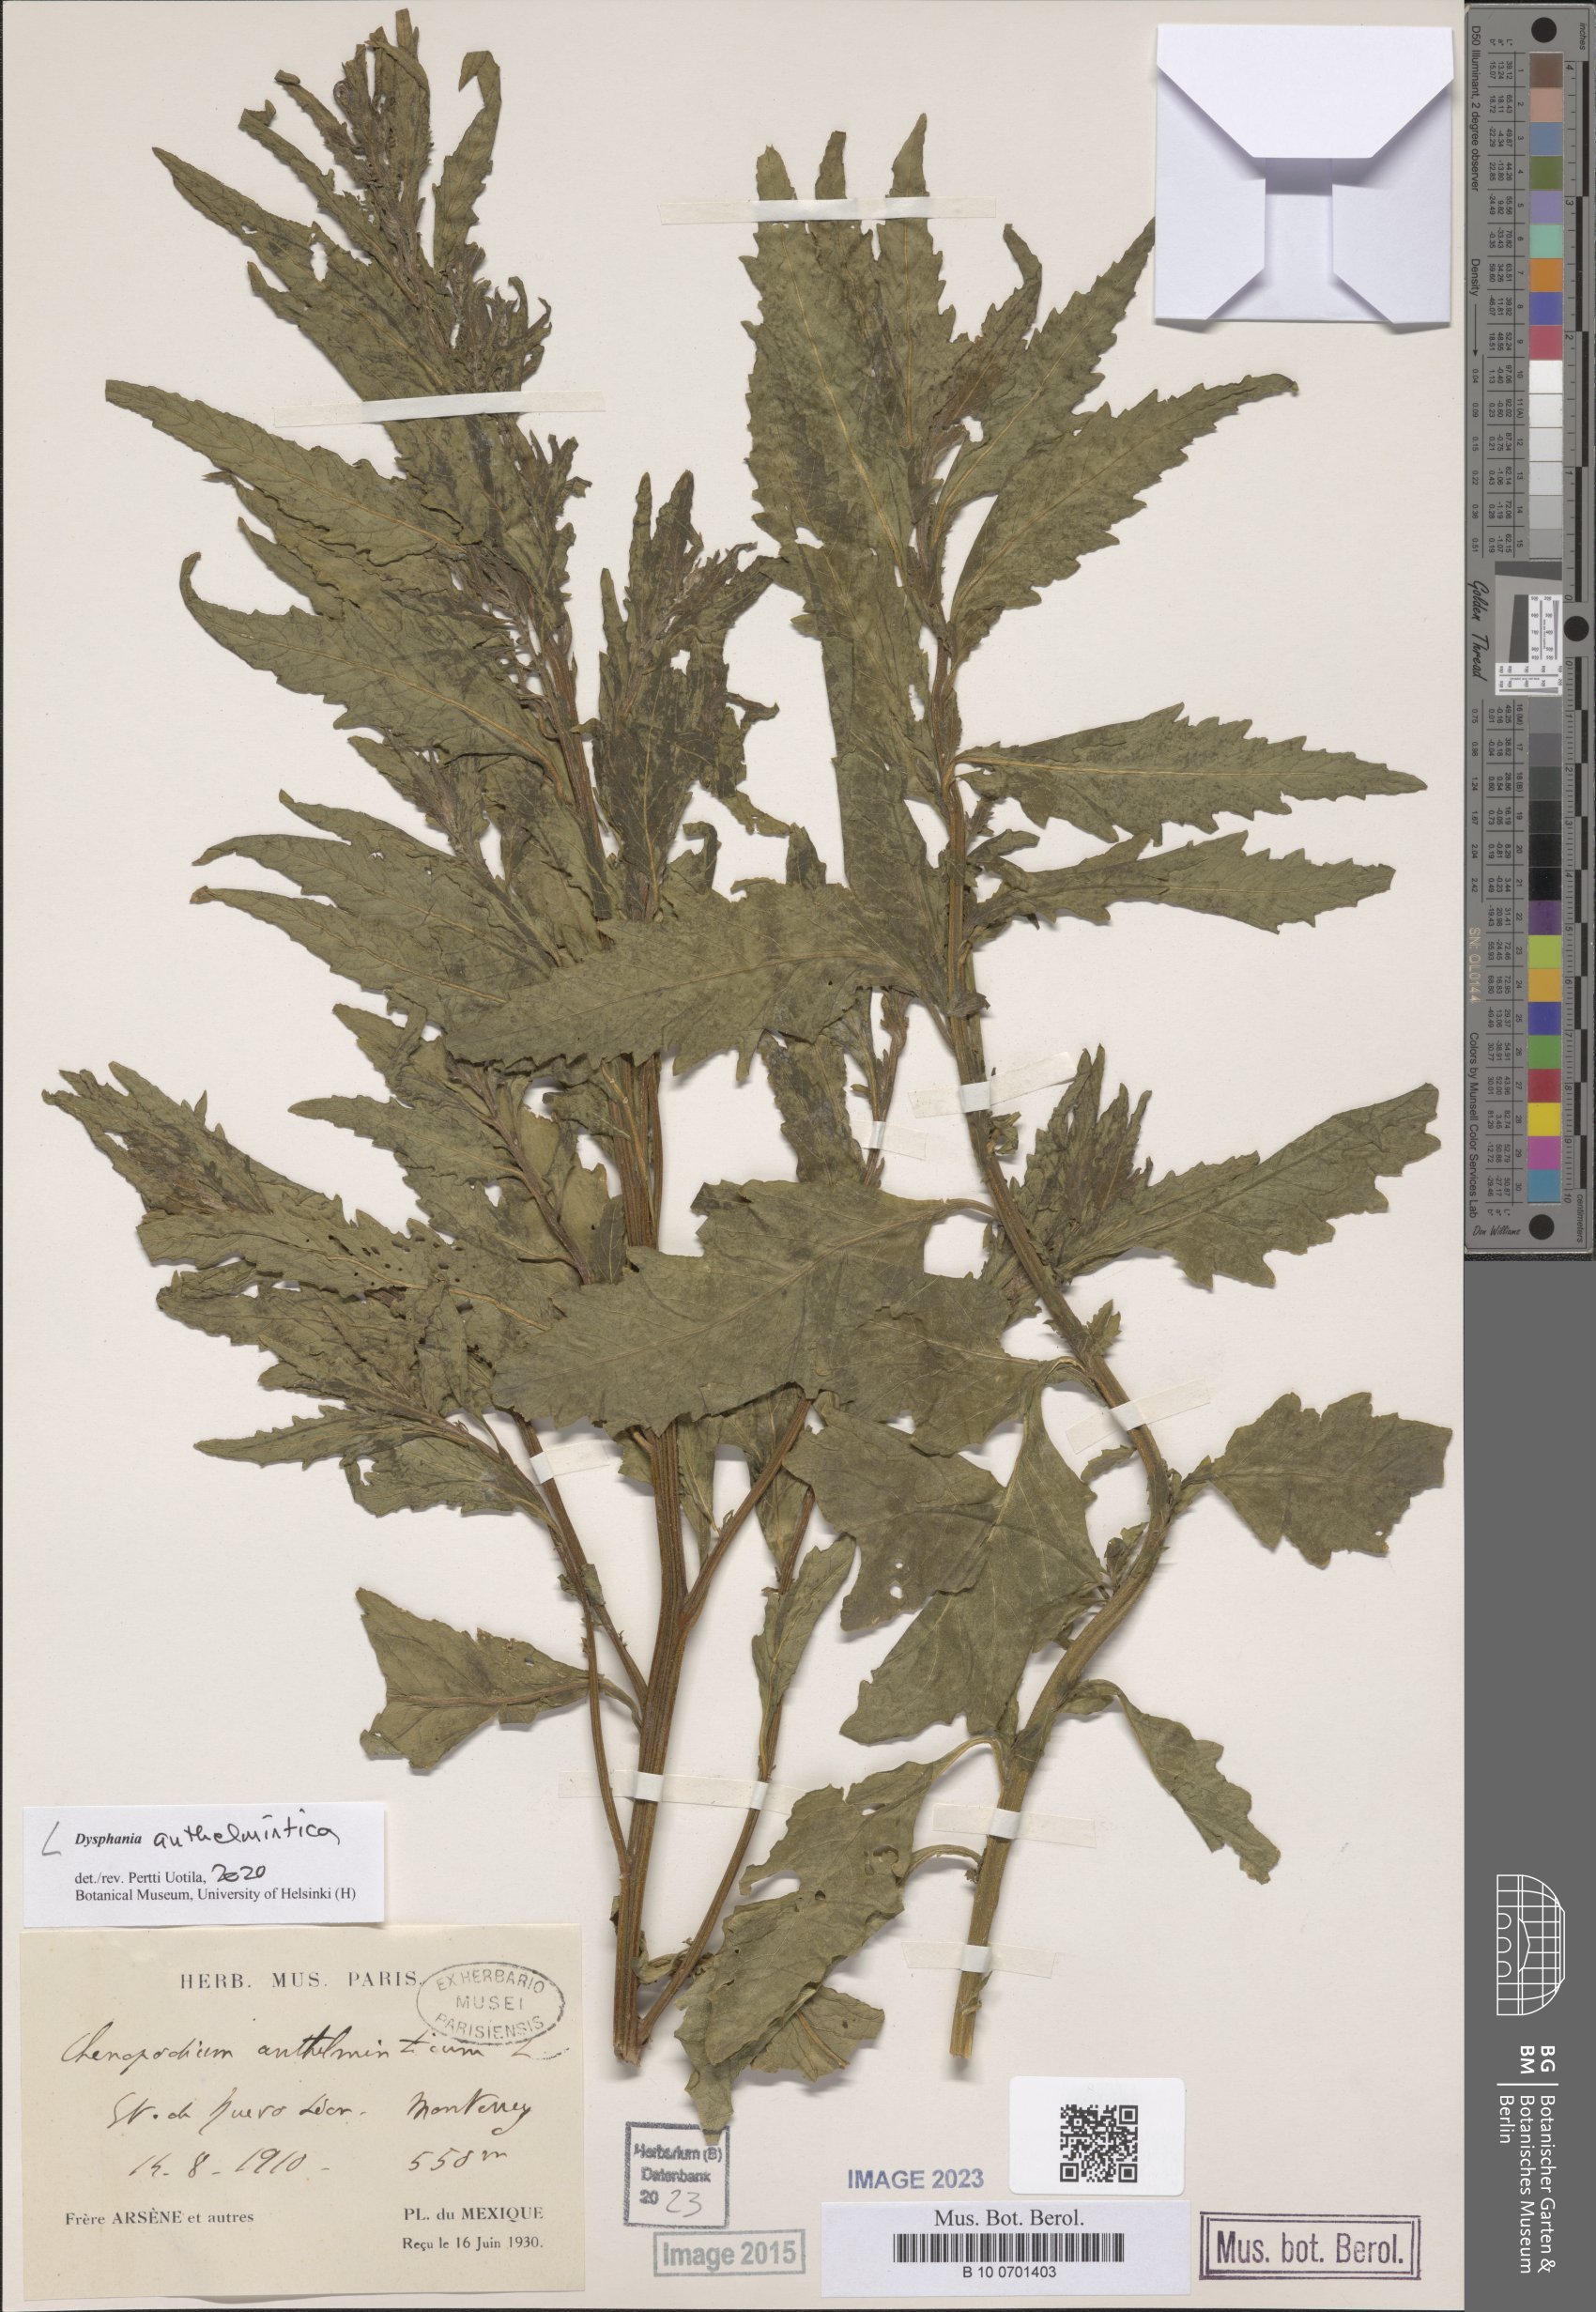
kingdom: Plantae
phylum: Tracheophyta
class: Magnoliopsida
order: Caryophyllales
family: Amaranthaceae
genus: Dysphania
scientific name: Dysphania anthelmintica
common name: Wormseed
